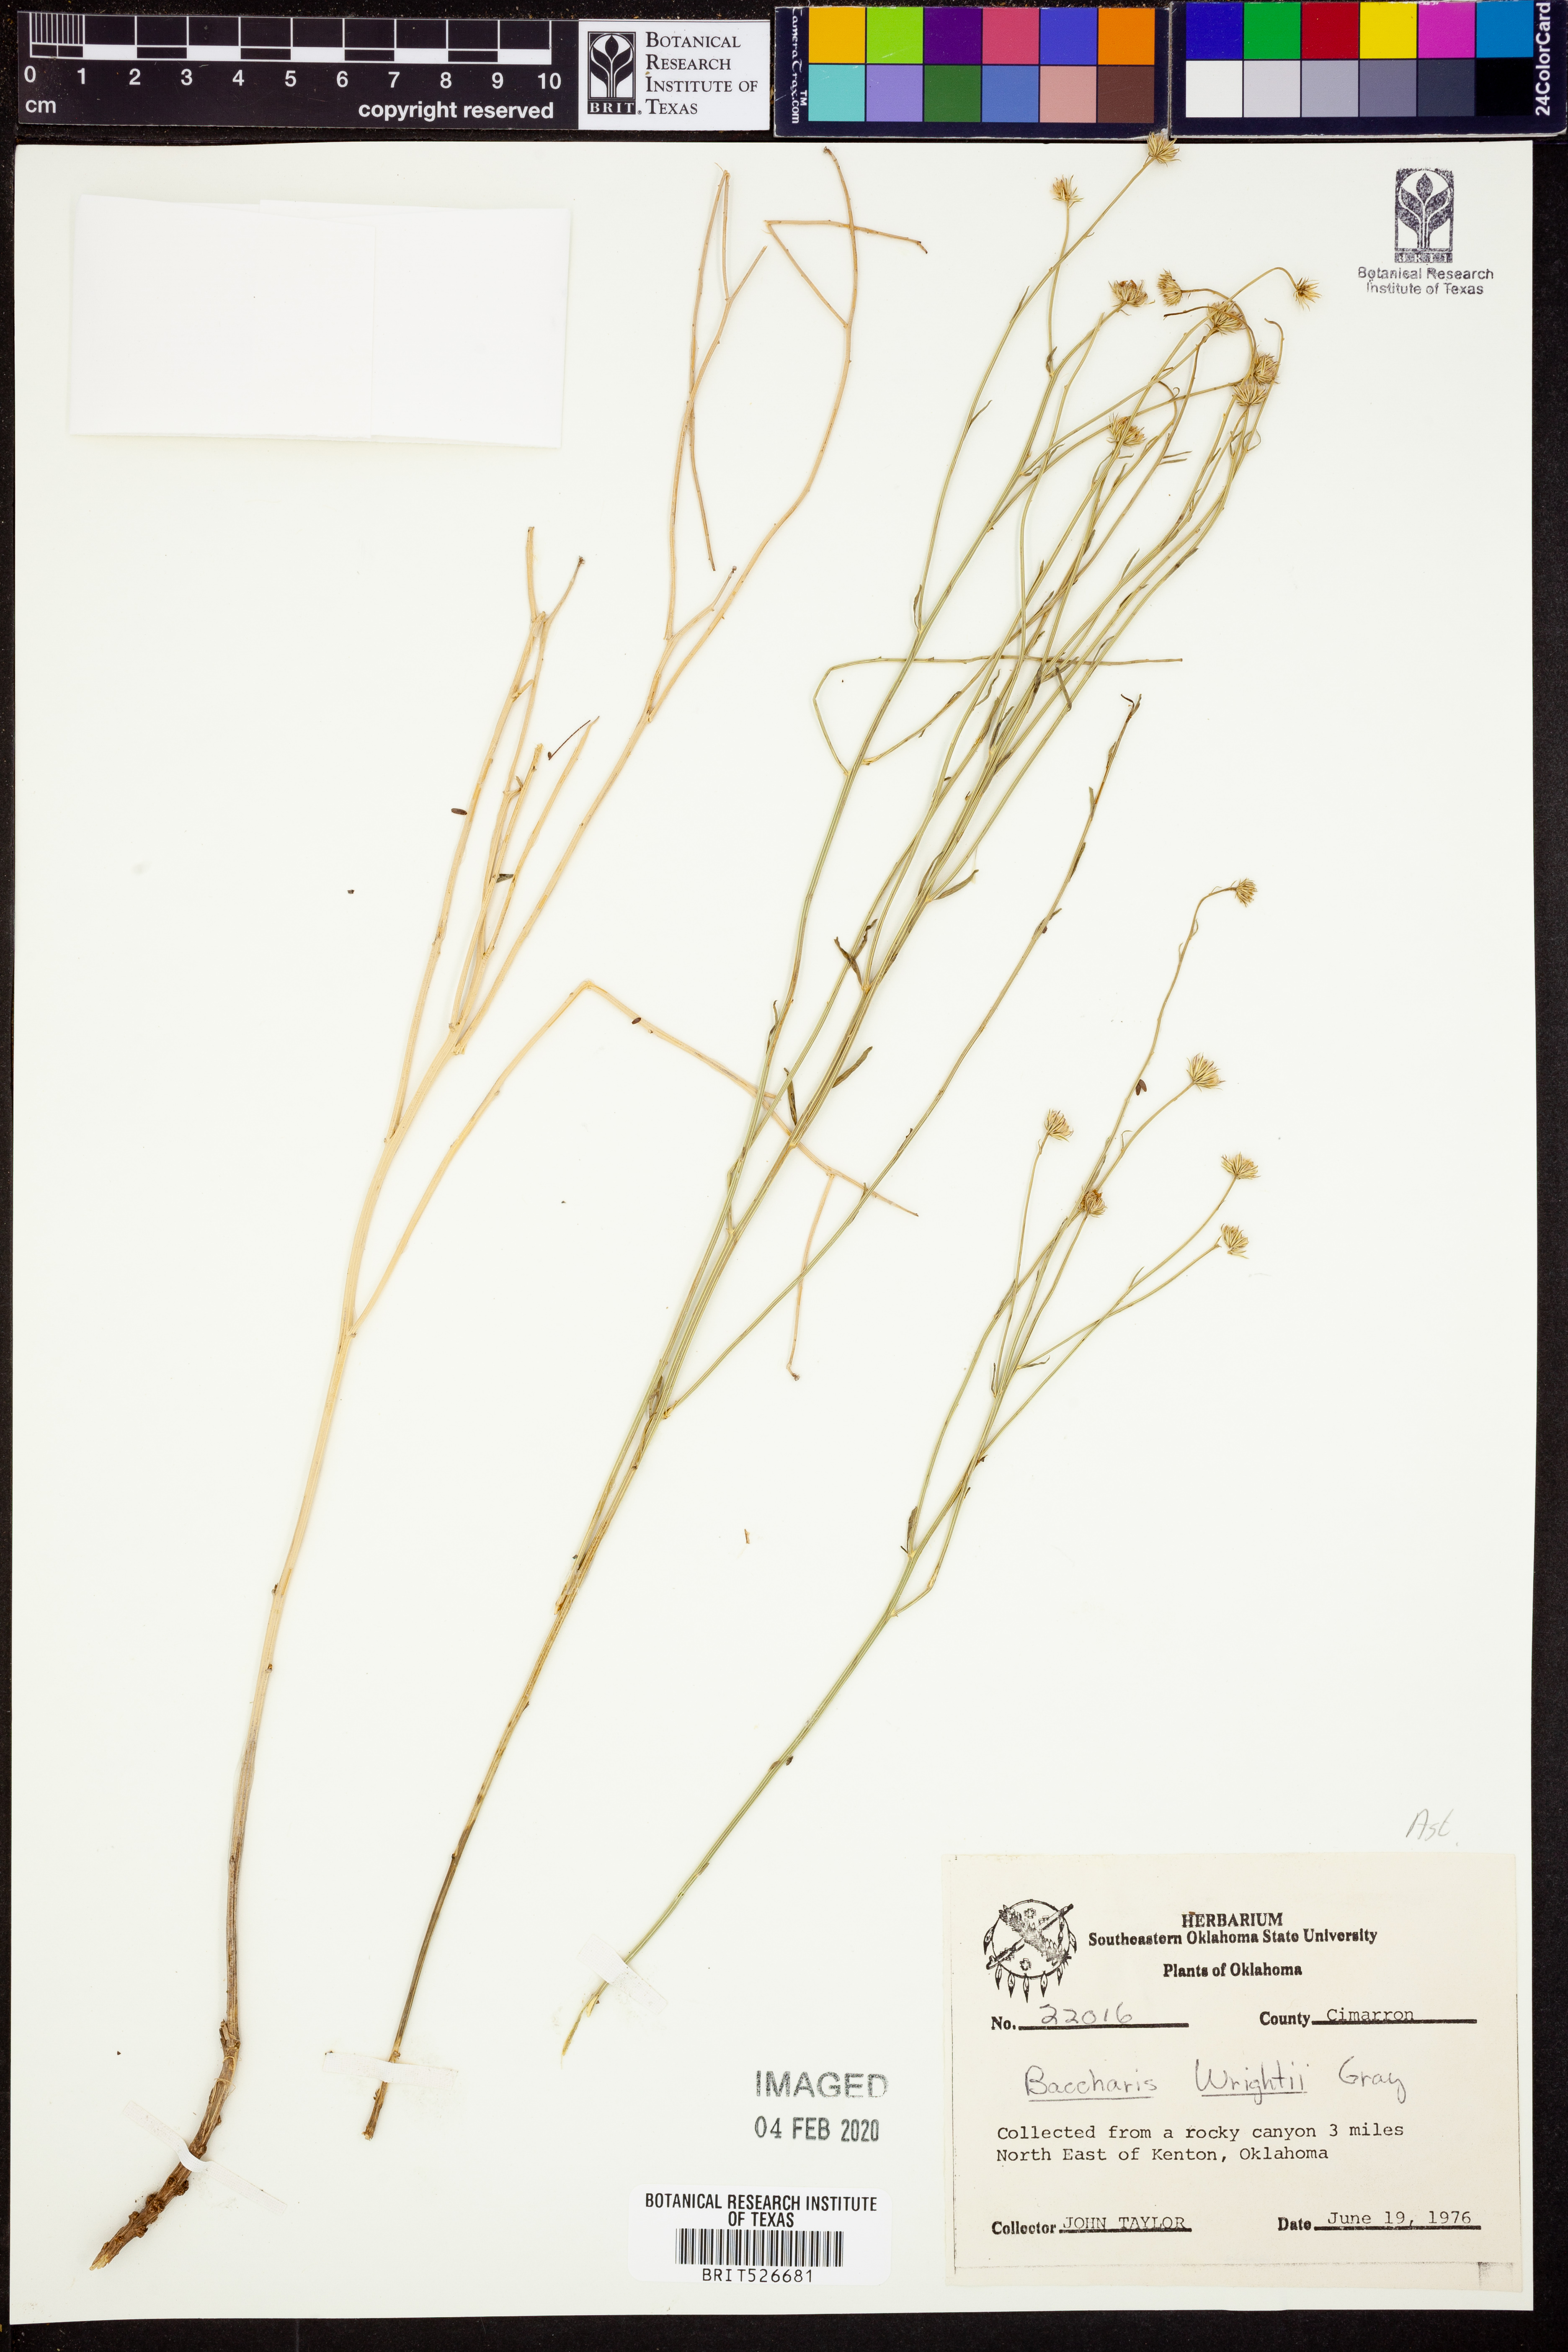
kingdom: Plantae
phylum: Tracheophyta
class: Magnoliopsida
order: Asterales
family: Asteraceae
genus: Baccharis
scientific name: Baccharis wrightii
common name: Wright's baccharis
